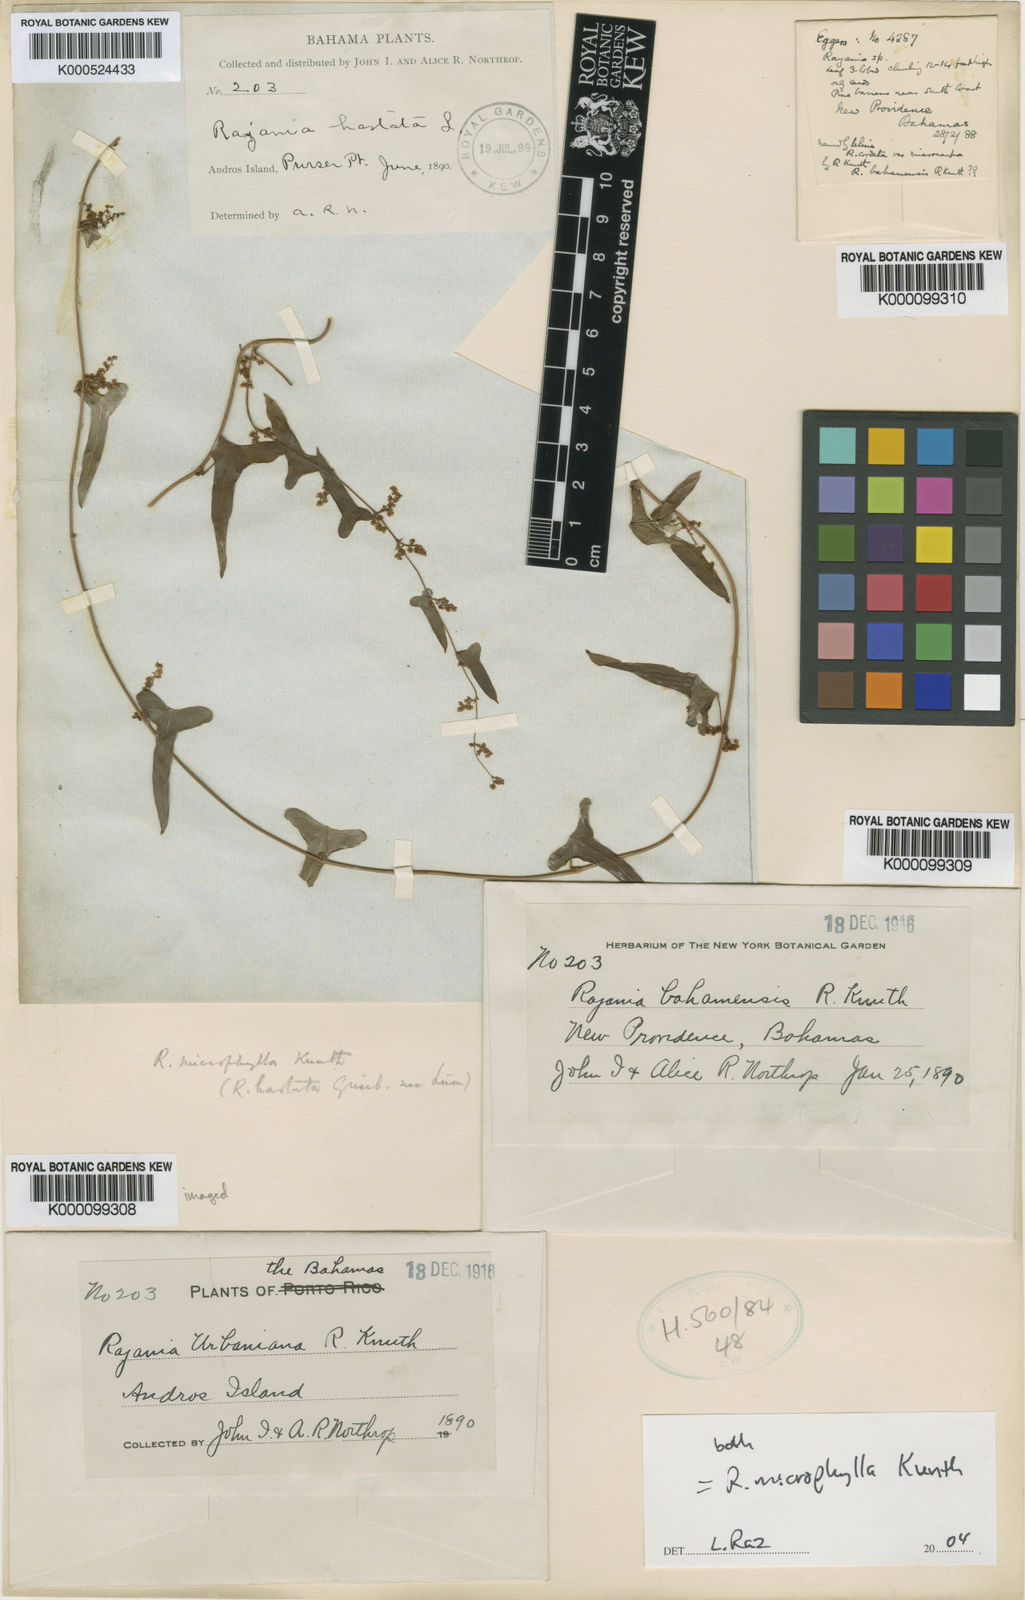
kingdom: Plantae
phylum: Tracheophyta
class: Liliopsida
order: Dioscoreales
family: Dioscoreaceae
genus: Dioscorea
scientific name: Dioscorea
